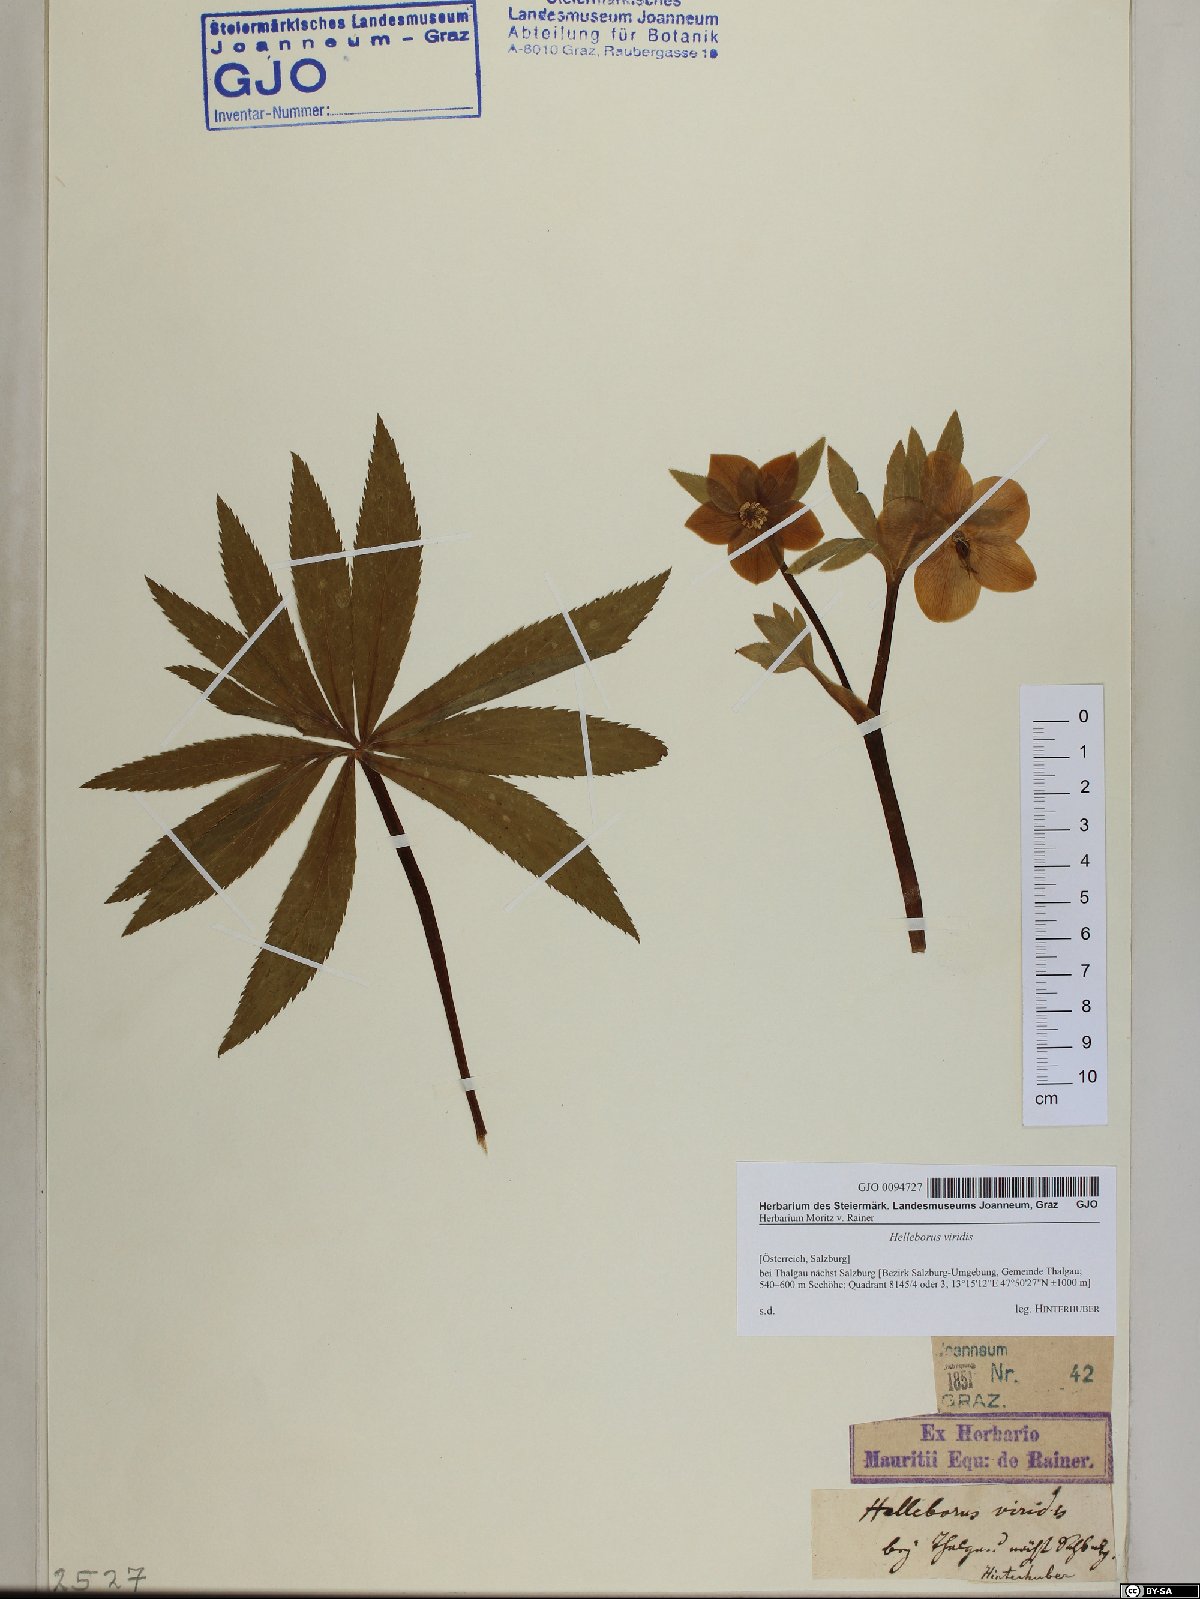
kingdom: Plantae
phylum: Tracheophyta
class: Magnoliopsida
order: Ranunculales
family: Ranunculaceae
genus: Helleborus
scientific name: Helleborus viridis
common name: Green hellebore
